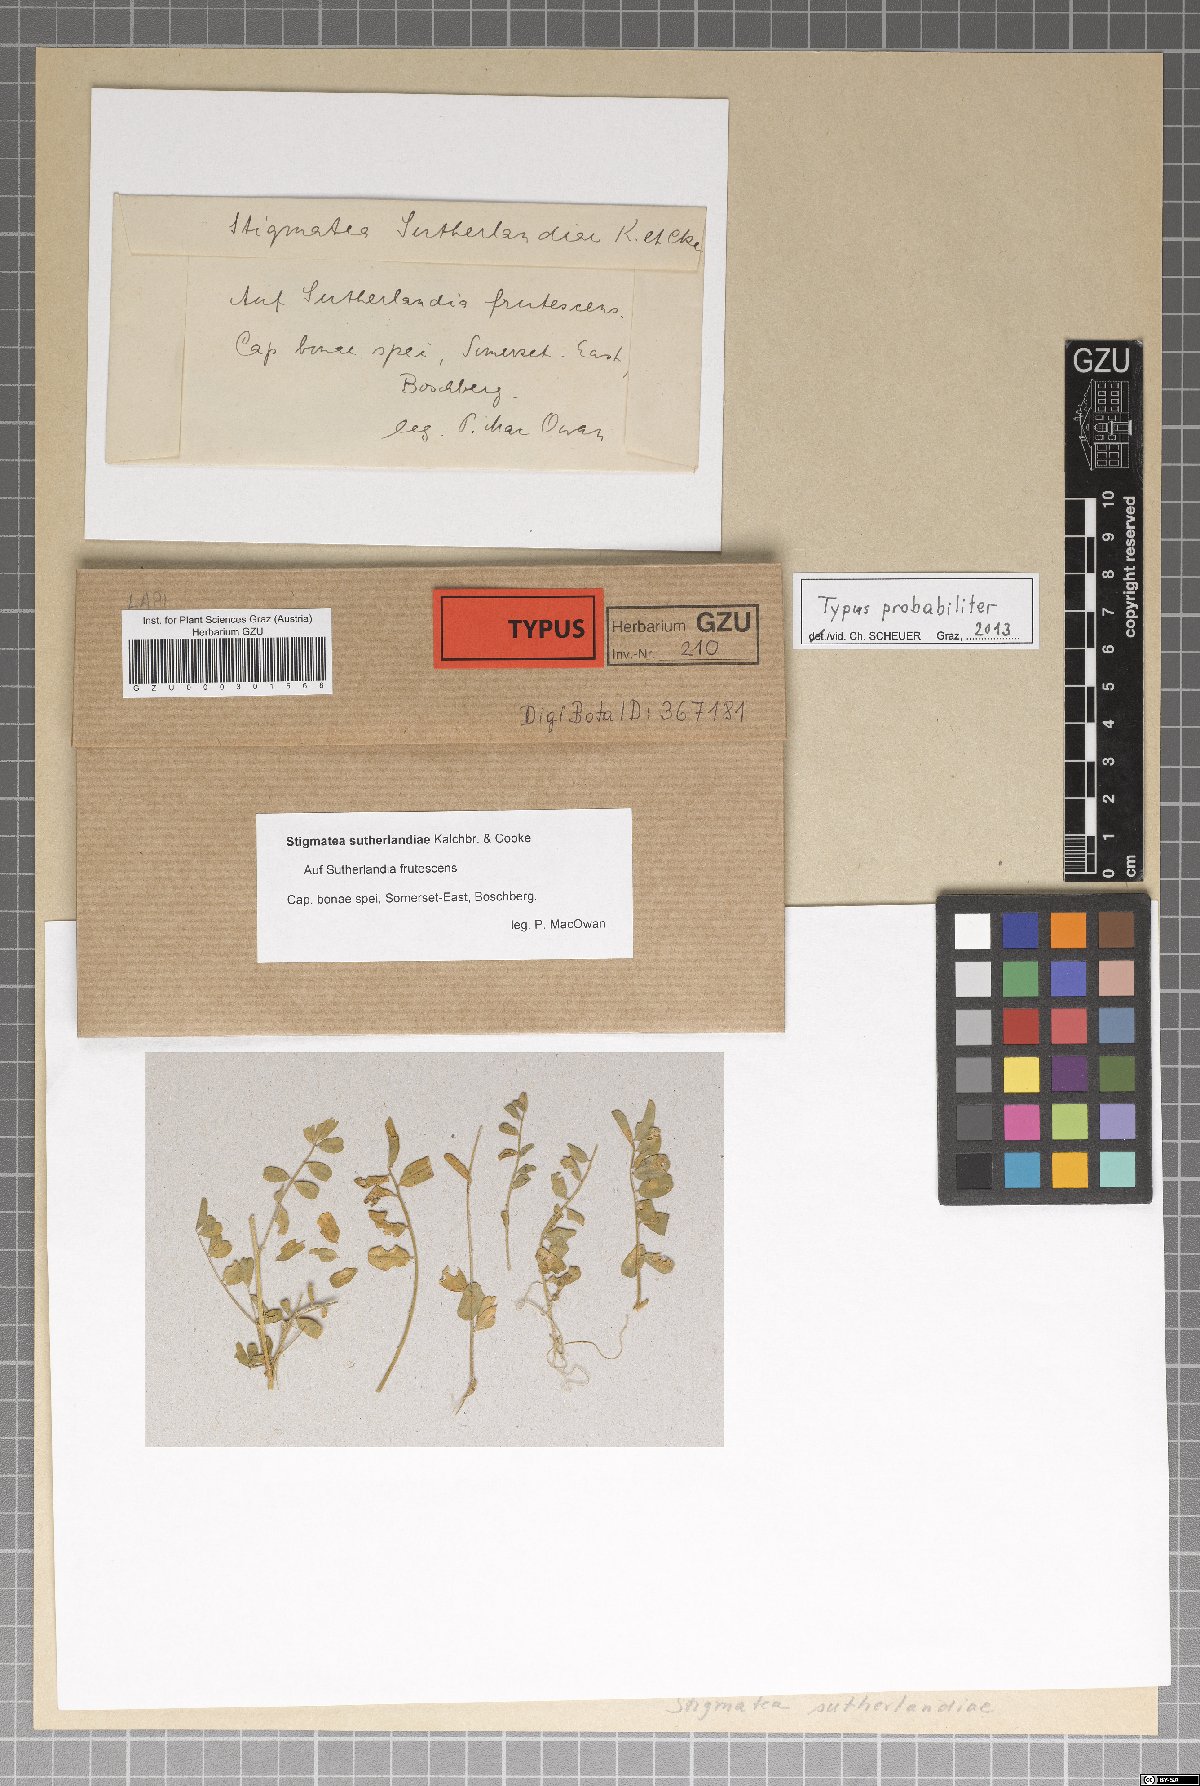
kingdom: Fungi
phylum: Ascomycota
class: Sordariomycetes
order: Phyllachorales
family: Phyllachoraceae
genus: Stigmatula
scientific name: Stigmatula sutherlandiae
